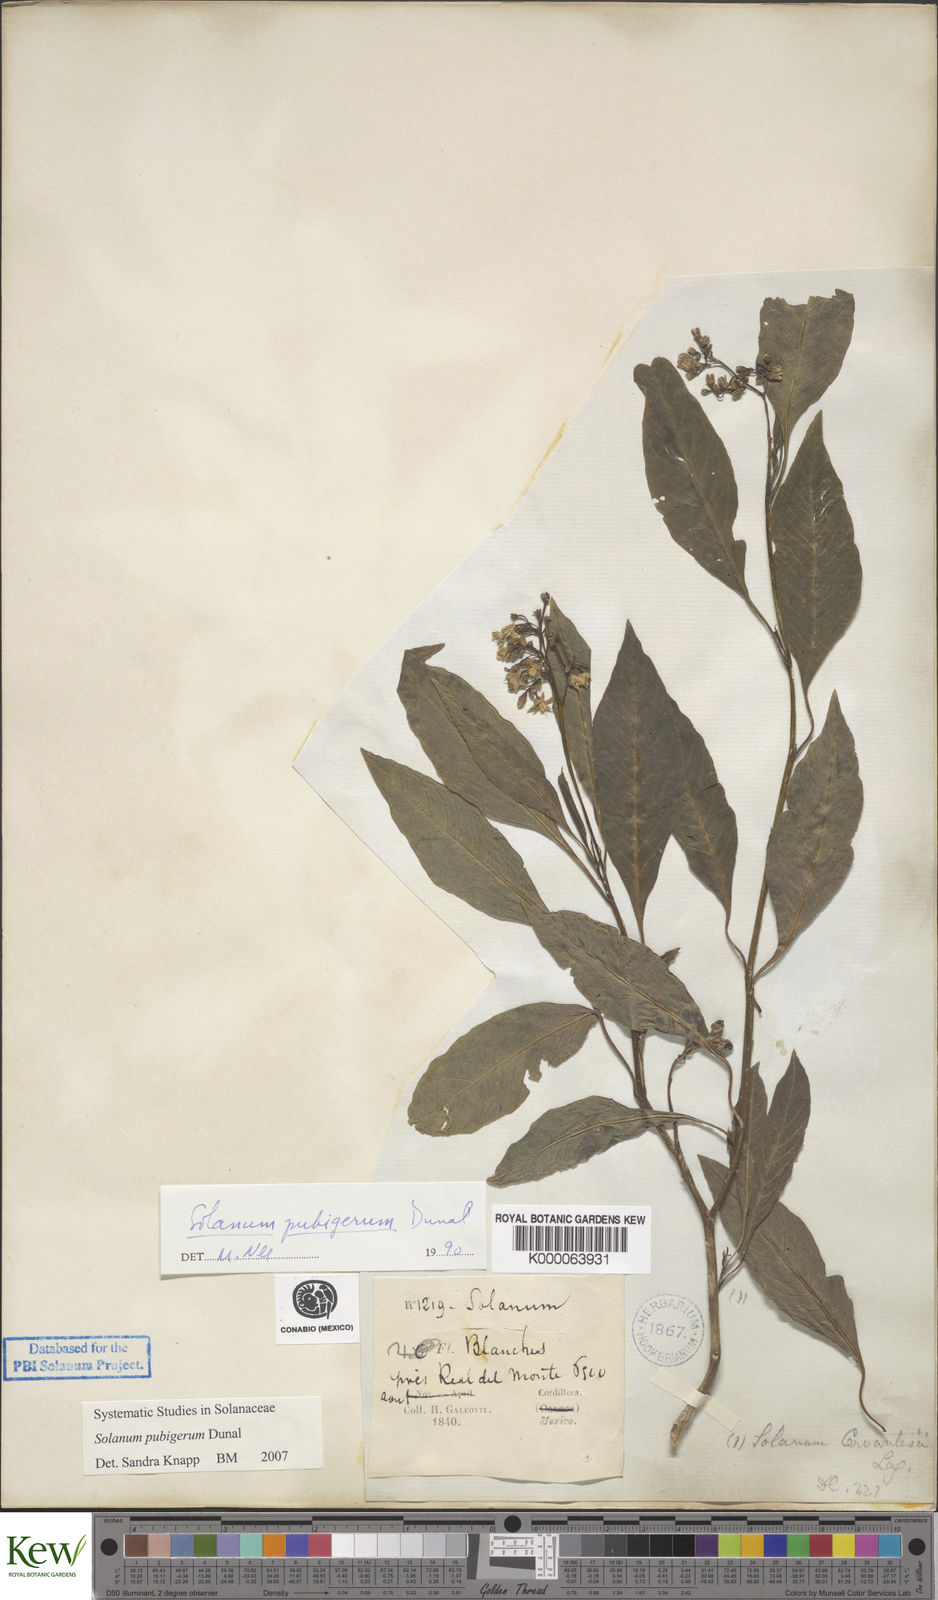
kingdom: Plantae
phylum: Tracheophyta
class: Magnoliopsida
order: Solanales
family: Solanaceae
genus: Solanum
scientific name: Solanum pubigerum
